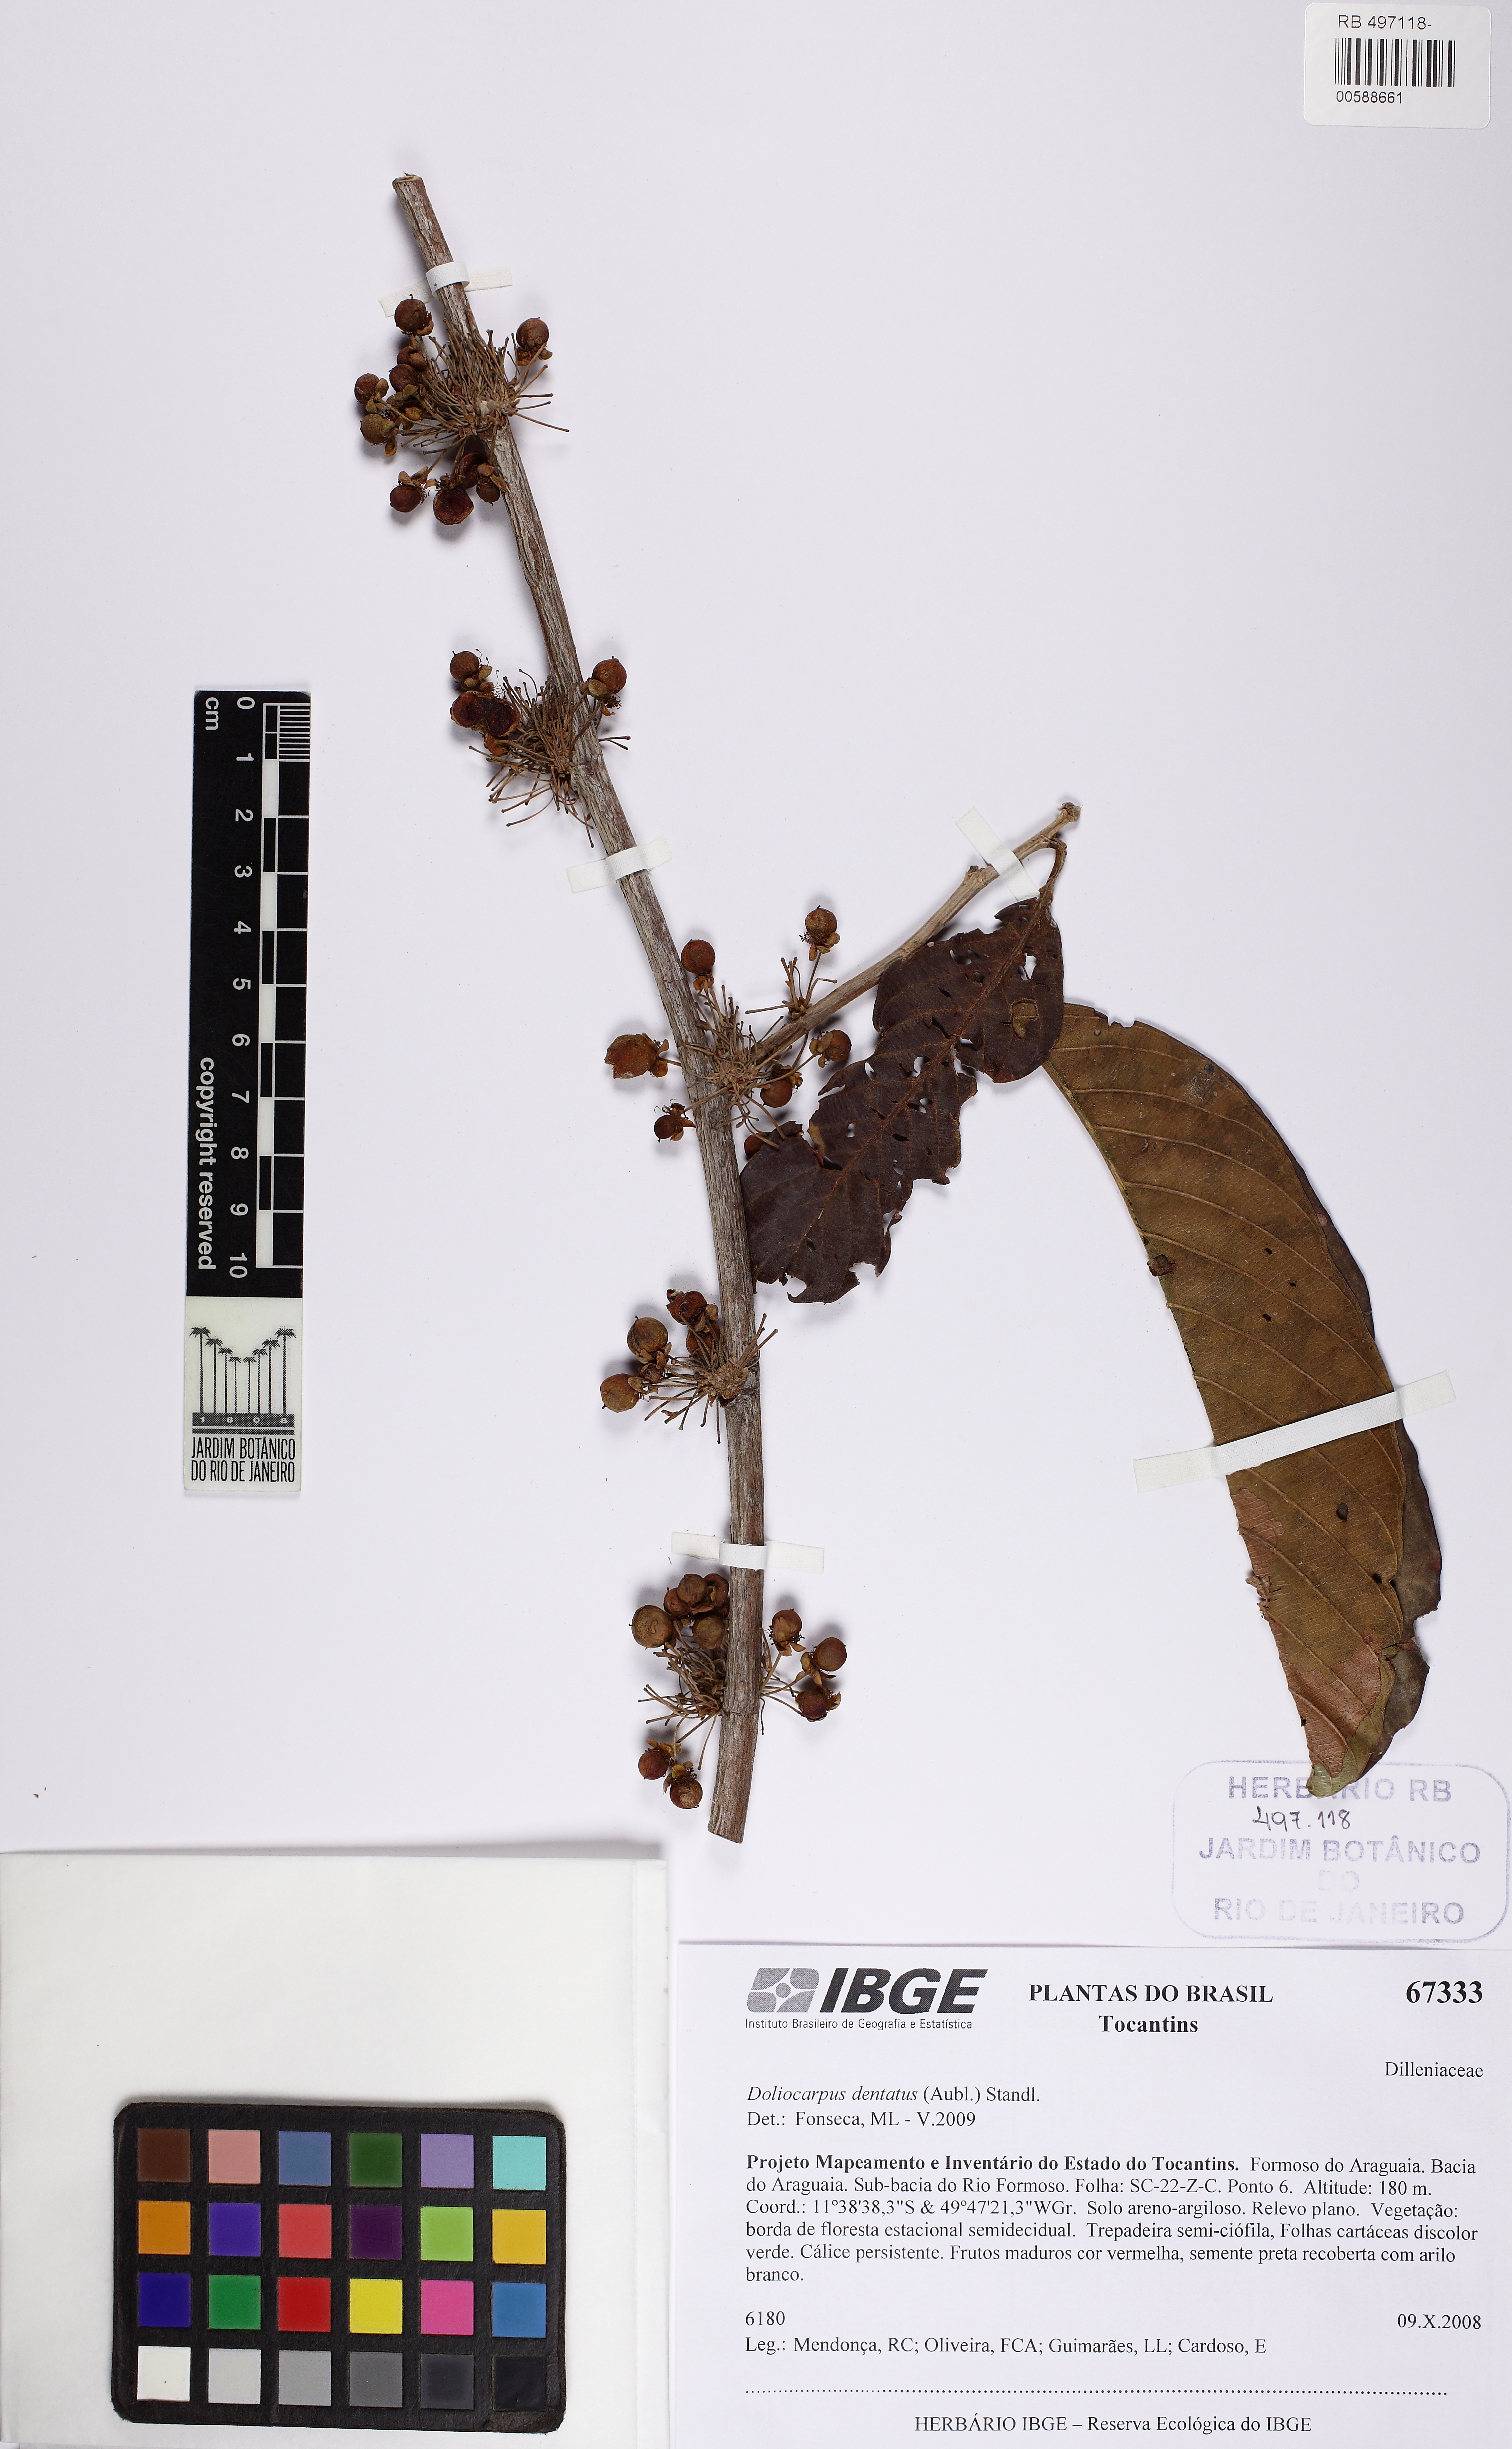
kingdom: Plantae
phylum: Tracheophyta
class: Magnoliopsida
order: Dilleniales
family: Dilleniaceae
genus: Doliocarpus
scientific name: Doliocarpus dentatus
